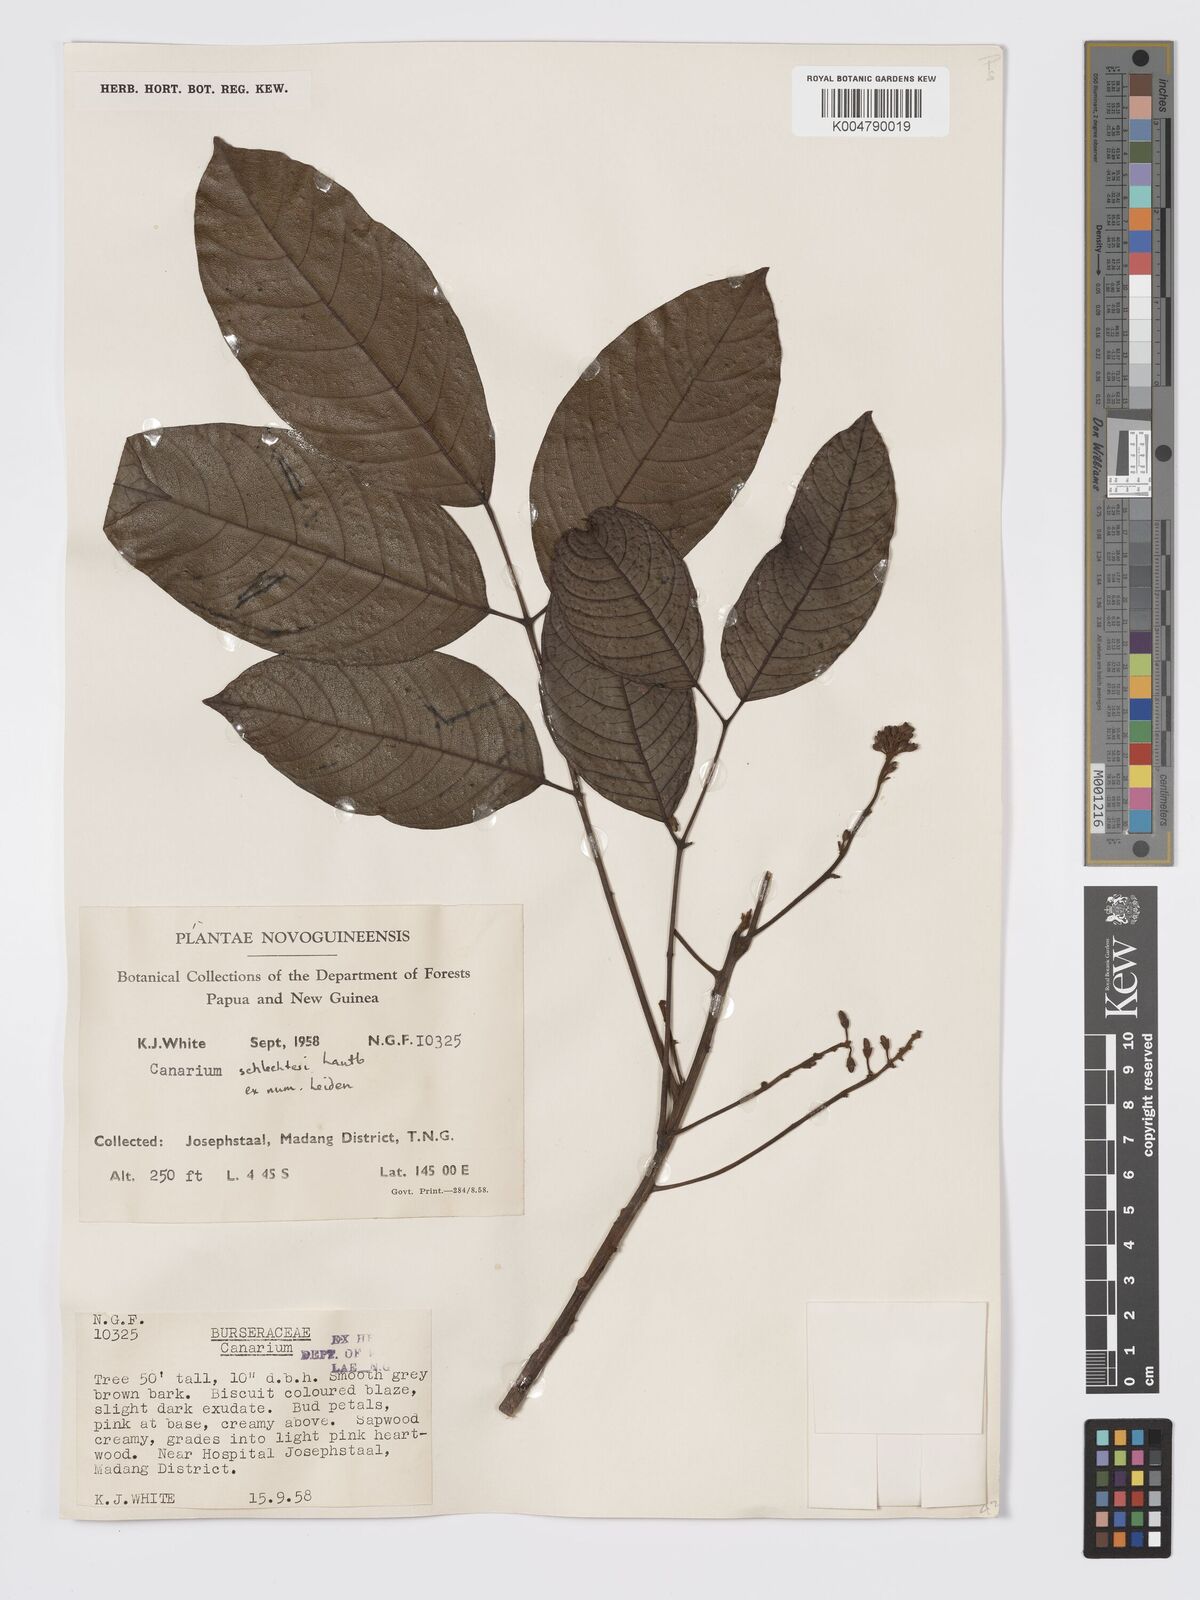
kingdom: Plantae
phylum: Tracheophyta
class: Magnoliopsida
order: Sapindales
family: Burseraceae
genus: Canarium
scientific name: Canarium schlechteri
